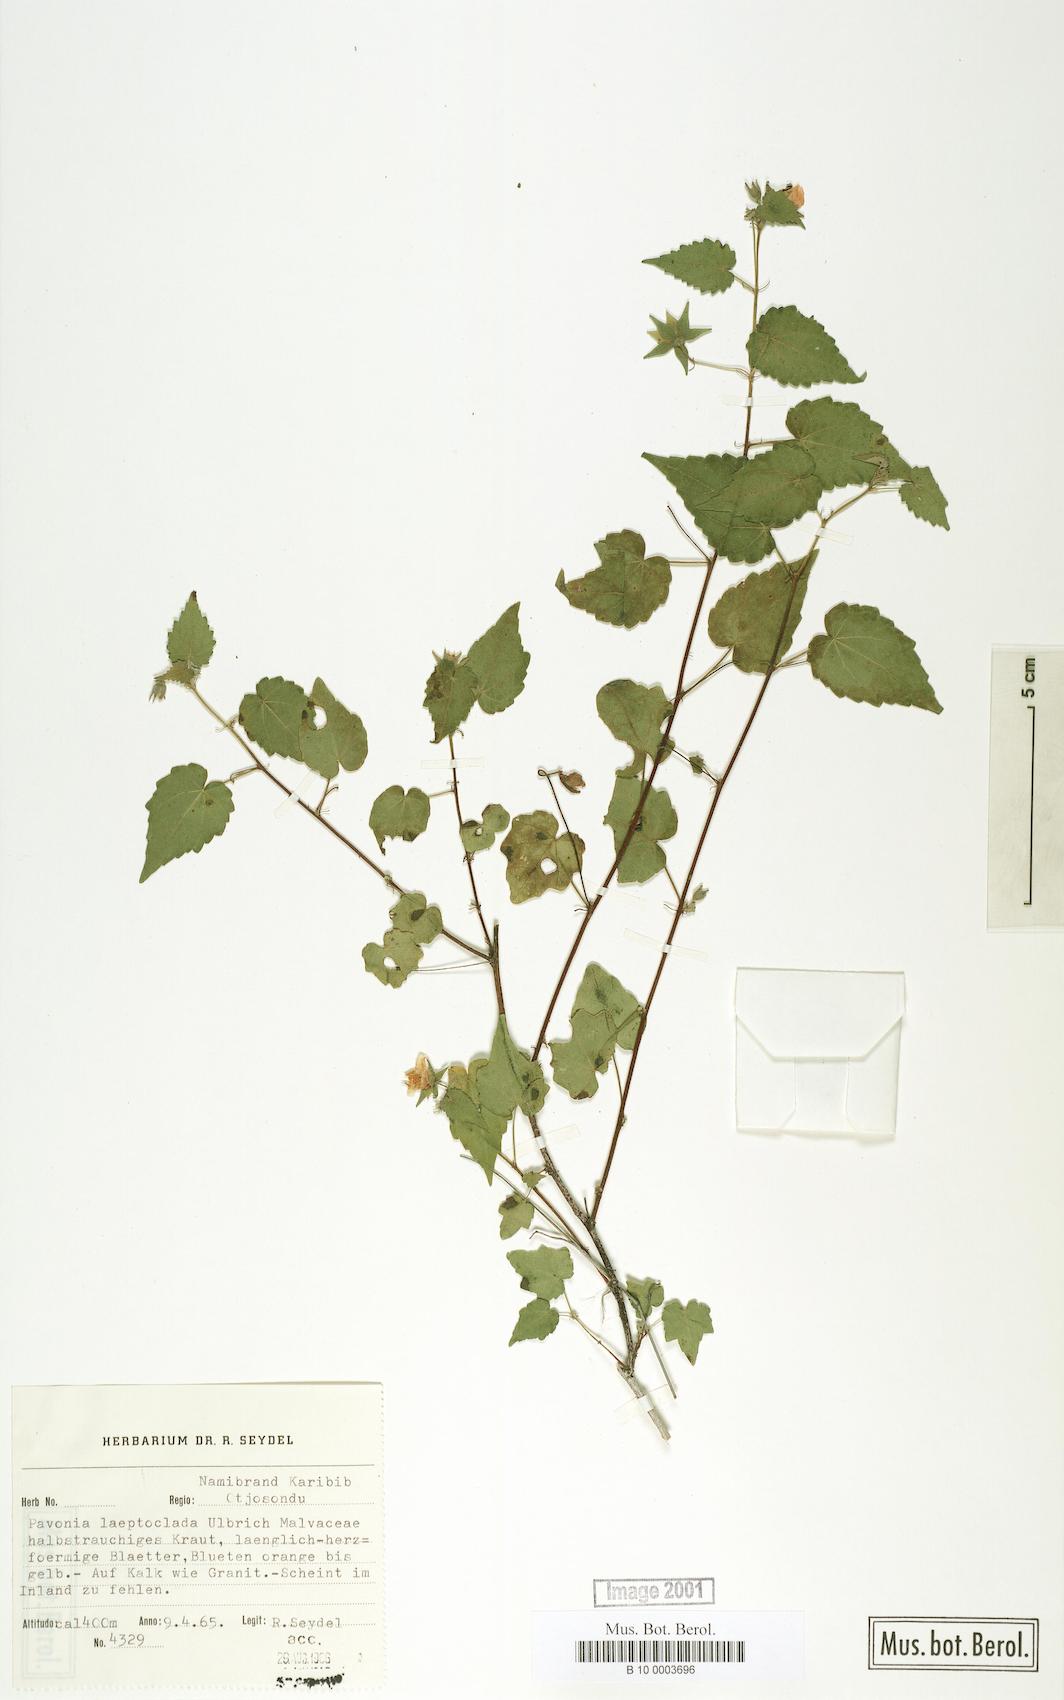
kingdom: Plantae
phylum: Tracheophyta
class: Magnoliopsida
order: Malvales
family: Malvaceae
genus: Pavonia
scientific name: Pavonia burchellii
